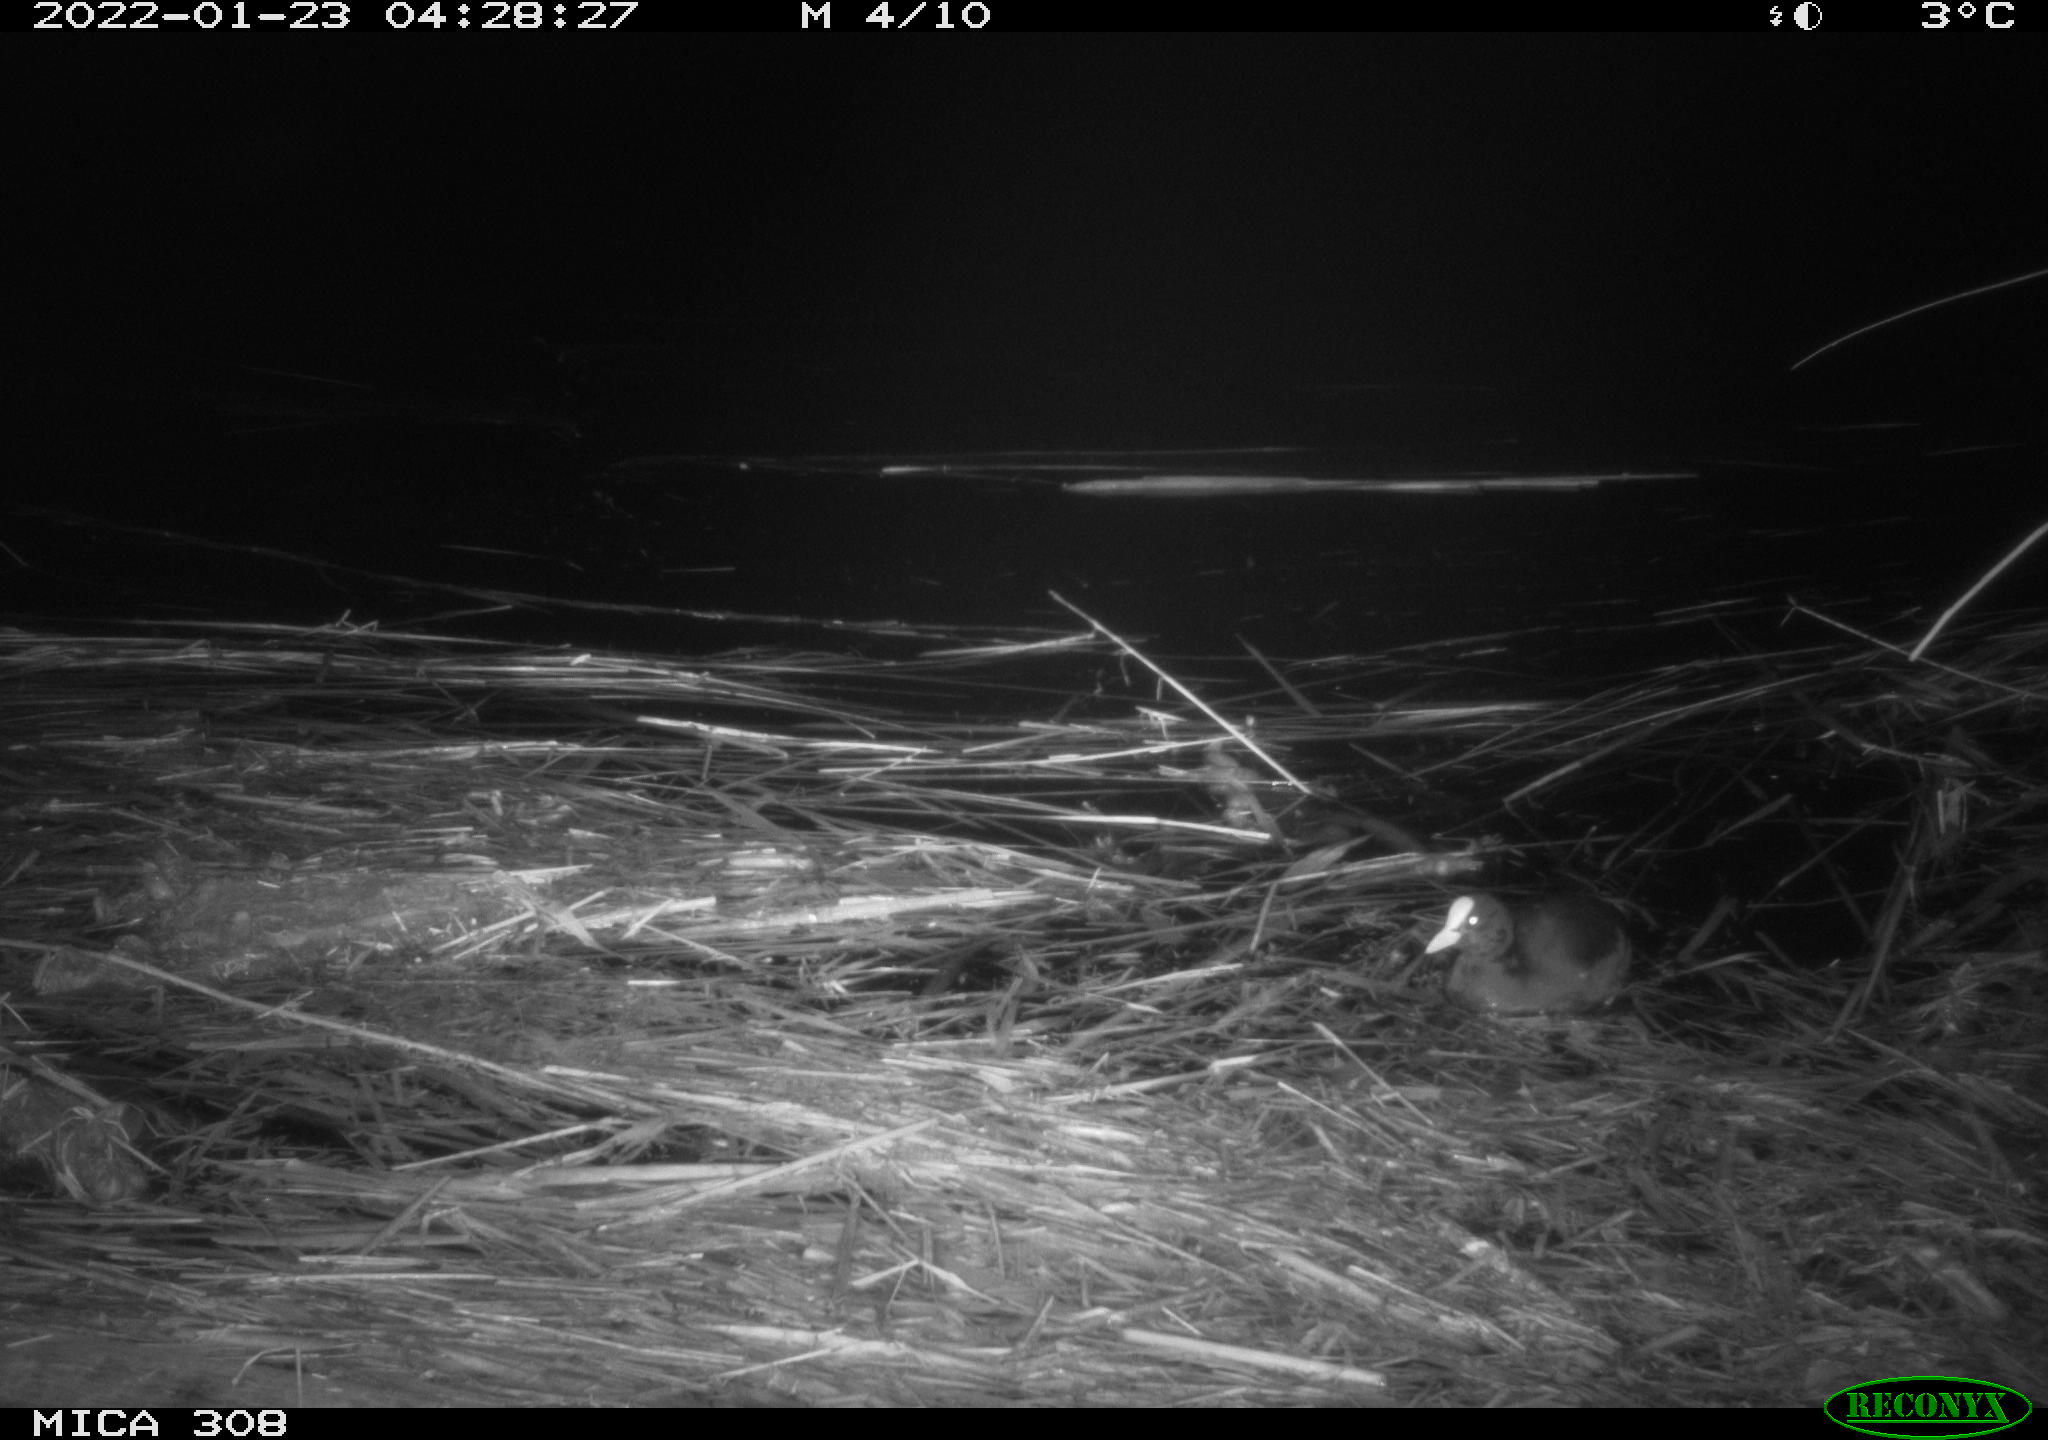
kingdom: Animalia
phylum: Chordata
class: Aves
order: Gruiformes
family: Rallidae
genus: Fulica
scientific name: Fulica atra
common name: Eurasian coot
